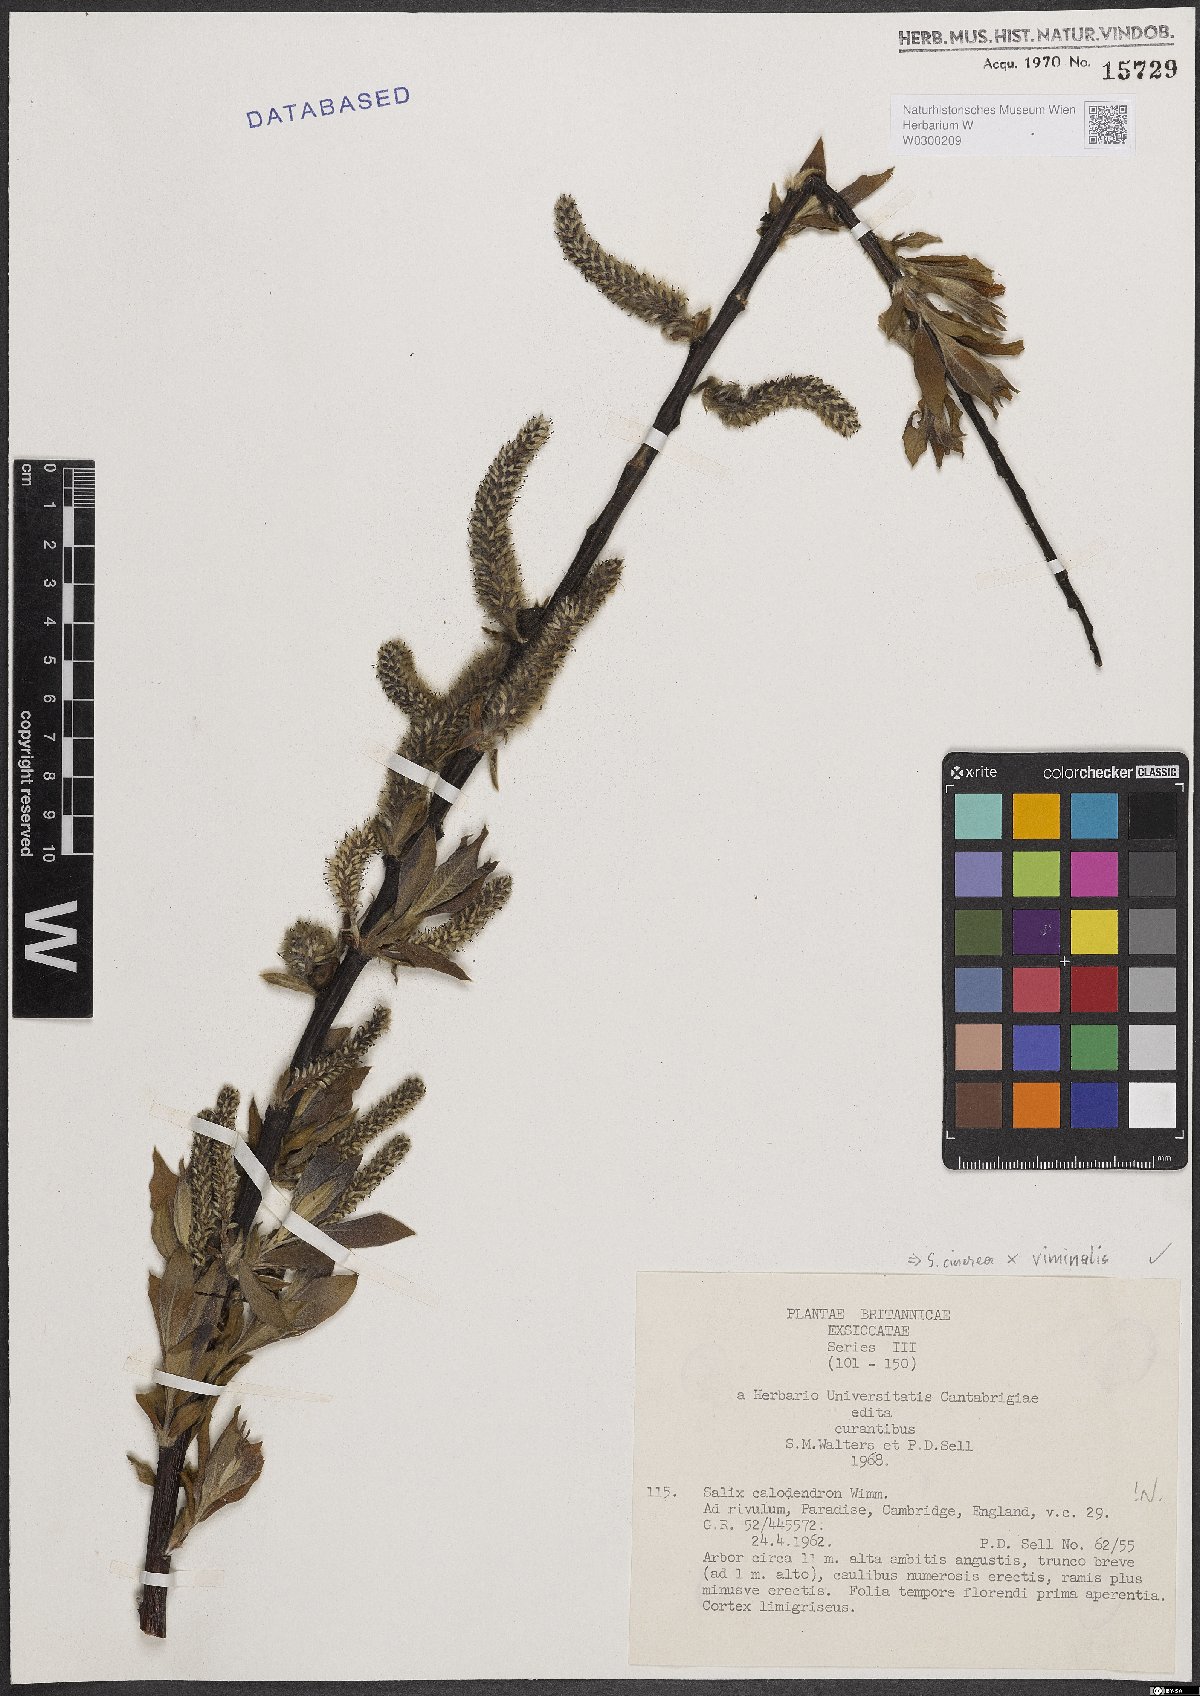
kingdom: Plantae
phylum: Tracheophyta
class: Magnoliopsida
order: Malpighiales
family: Salicaceae
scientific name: Salicaceae
